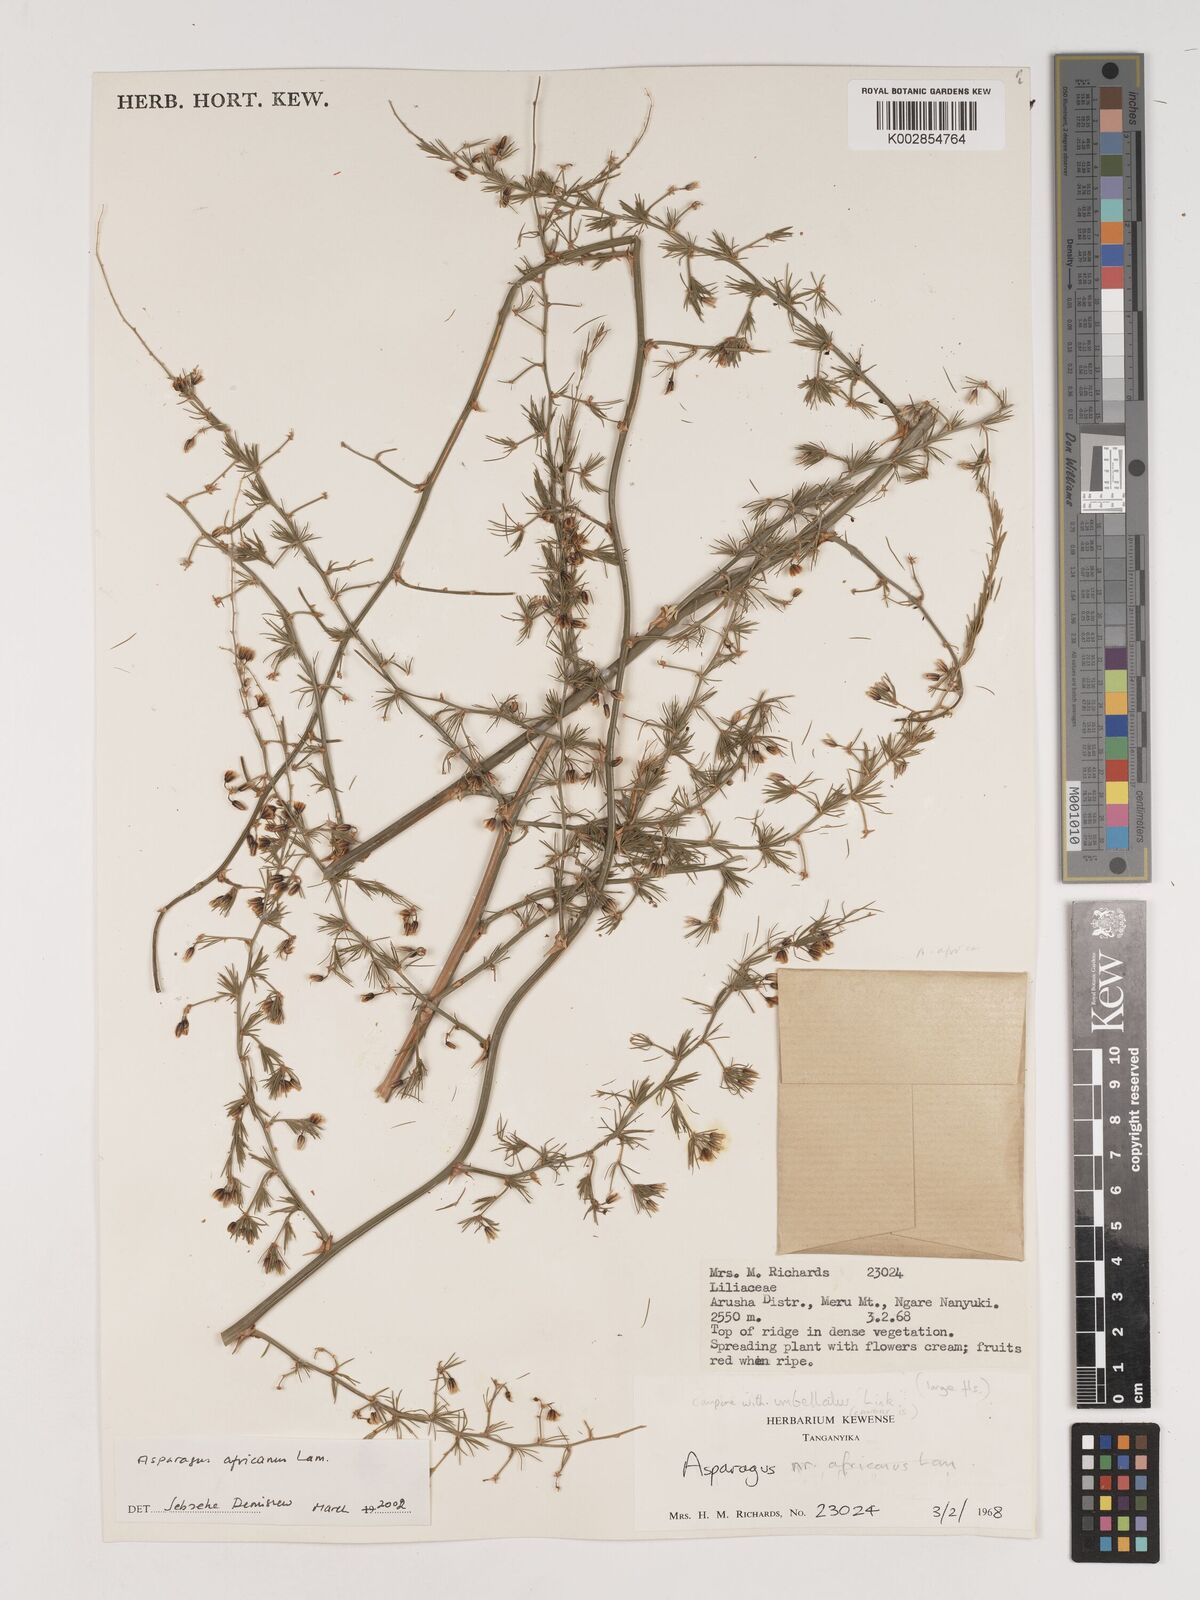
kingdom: Plantae
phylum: Tracheophyta
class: Liliopsida
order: Asparagales
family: Asparagaceae
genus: Asparagus
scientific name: Asparagus africanus
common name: Asparagus-fern
